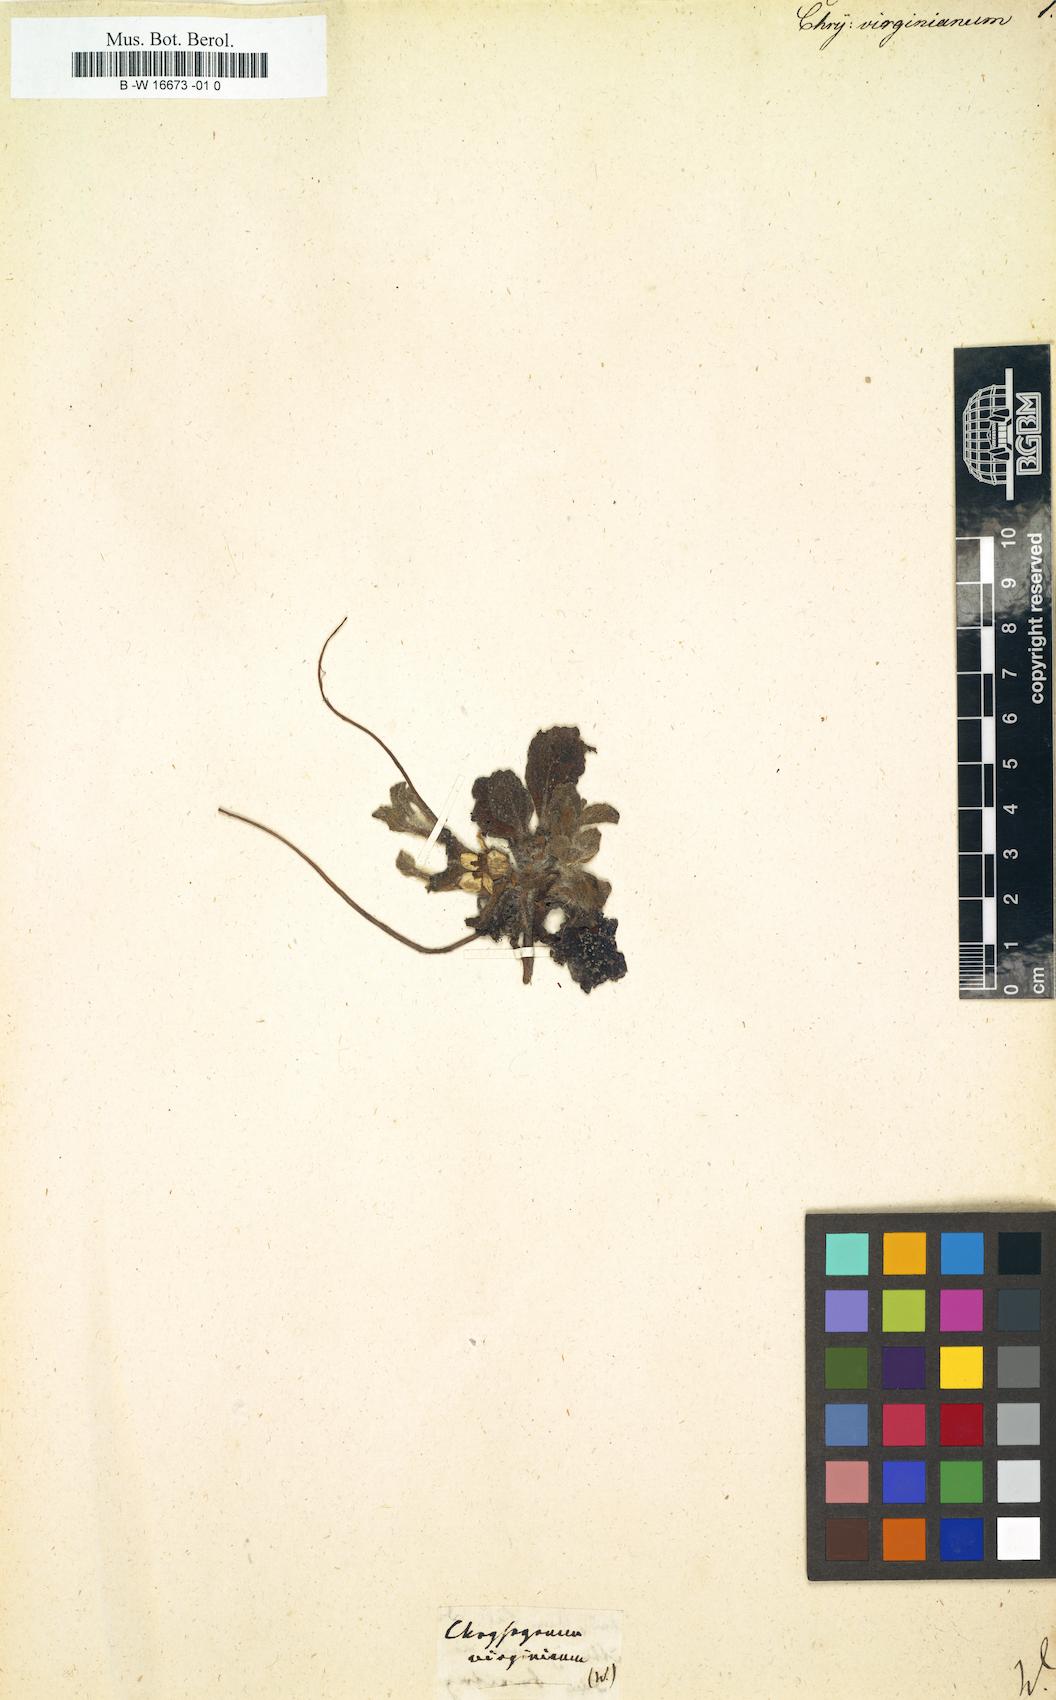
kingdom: Plantae
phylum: Tracheophyta
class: Magnoliopsida
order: Asterales
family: Asteraceae
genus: Chrysogonum
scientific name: Chrysogonum virginianum
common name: Golden-knee
